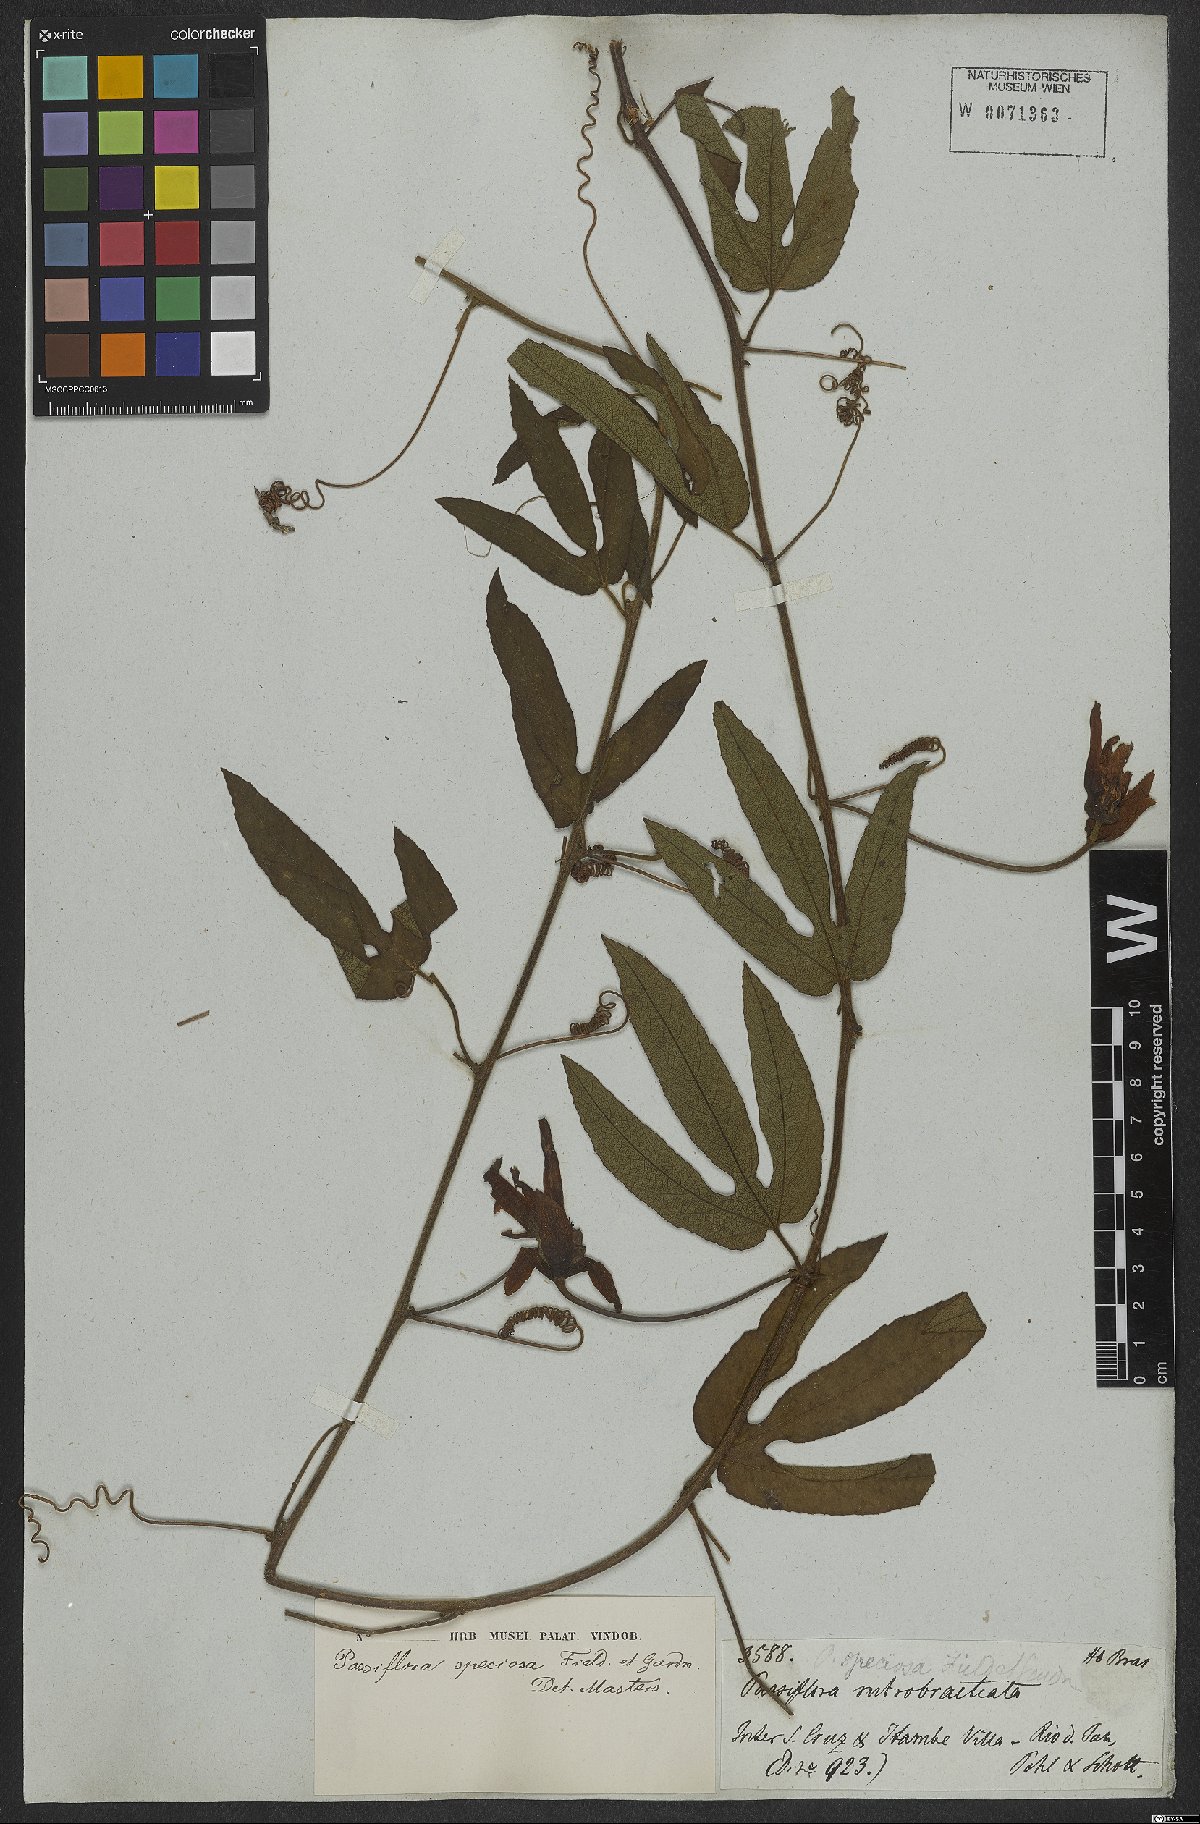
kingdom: Plantae
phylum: Tracheophyta
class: Magnoliopsida
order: Malpighiales
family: Passifloraceae
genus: Passiflora
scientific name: Passiflora speciosa
